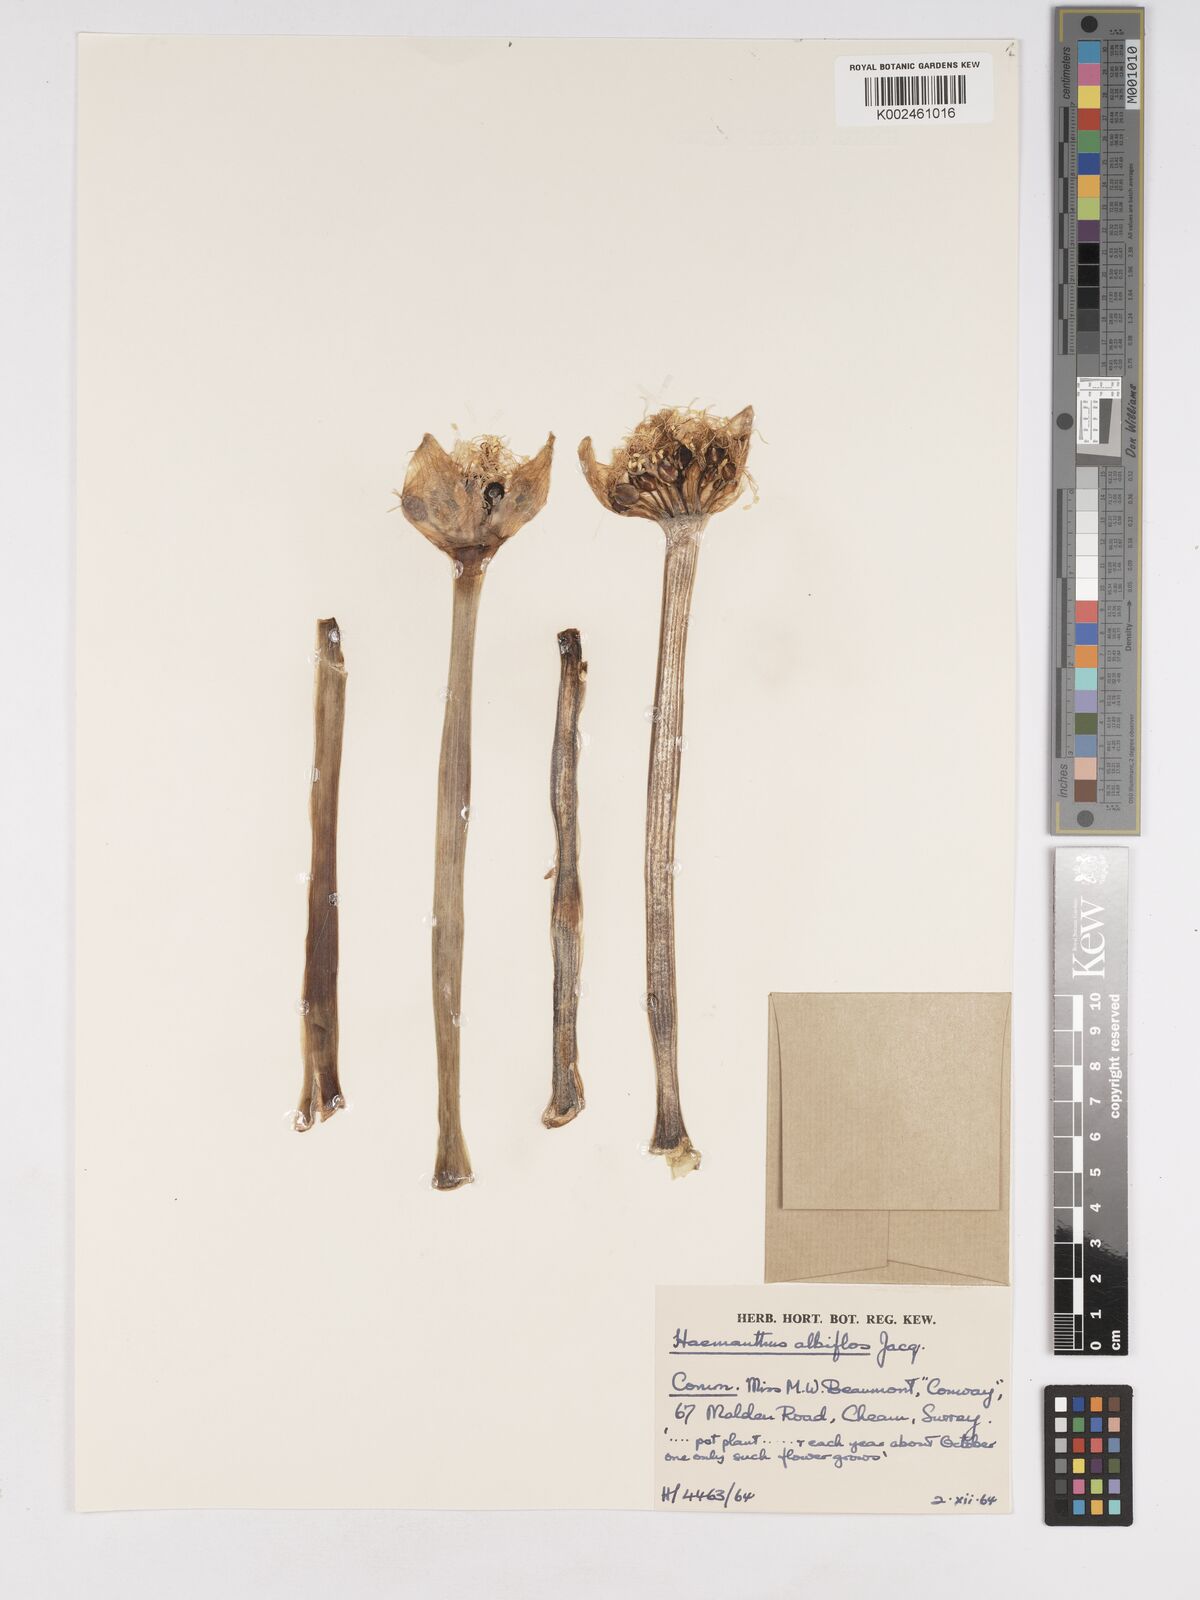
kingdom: Plantae
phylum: Tracheophyta
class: Liliopsida
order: Asparagales
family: Amaryllidaceae
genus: Haemanthus
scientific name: Haemanthus albiflos
